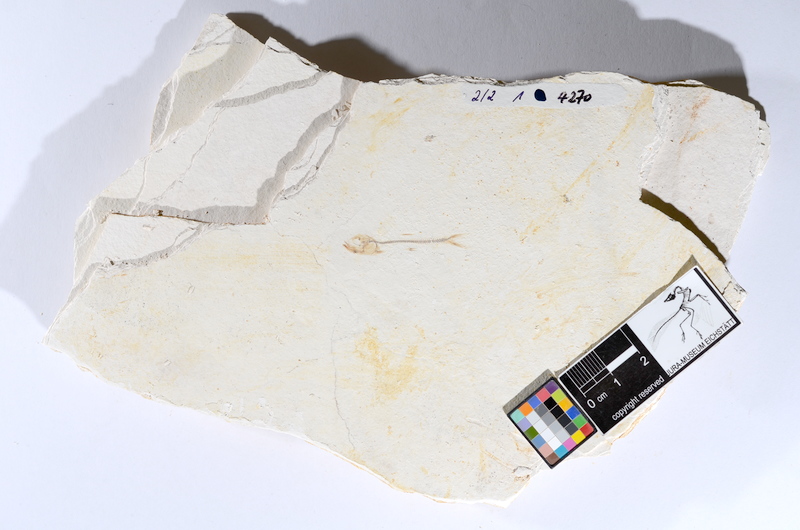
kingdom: Animalia
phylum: Chordata
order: Salmoniformes
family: Orthogonikleithridae
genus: Orthogonikleithrus
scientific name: Orthogonikleithrus hoelli
